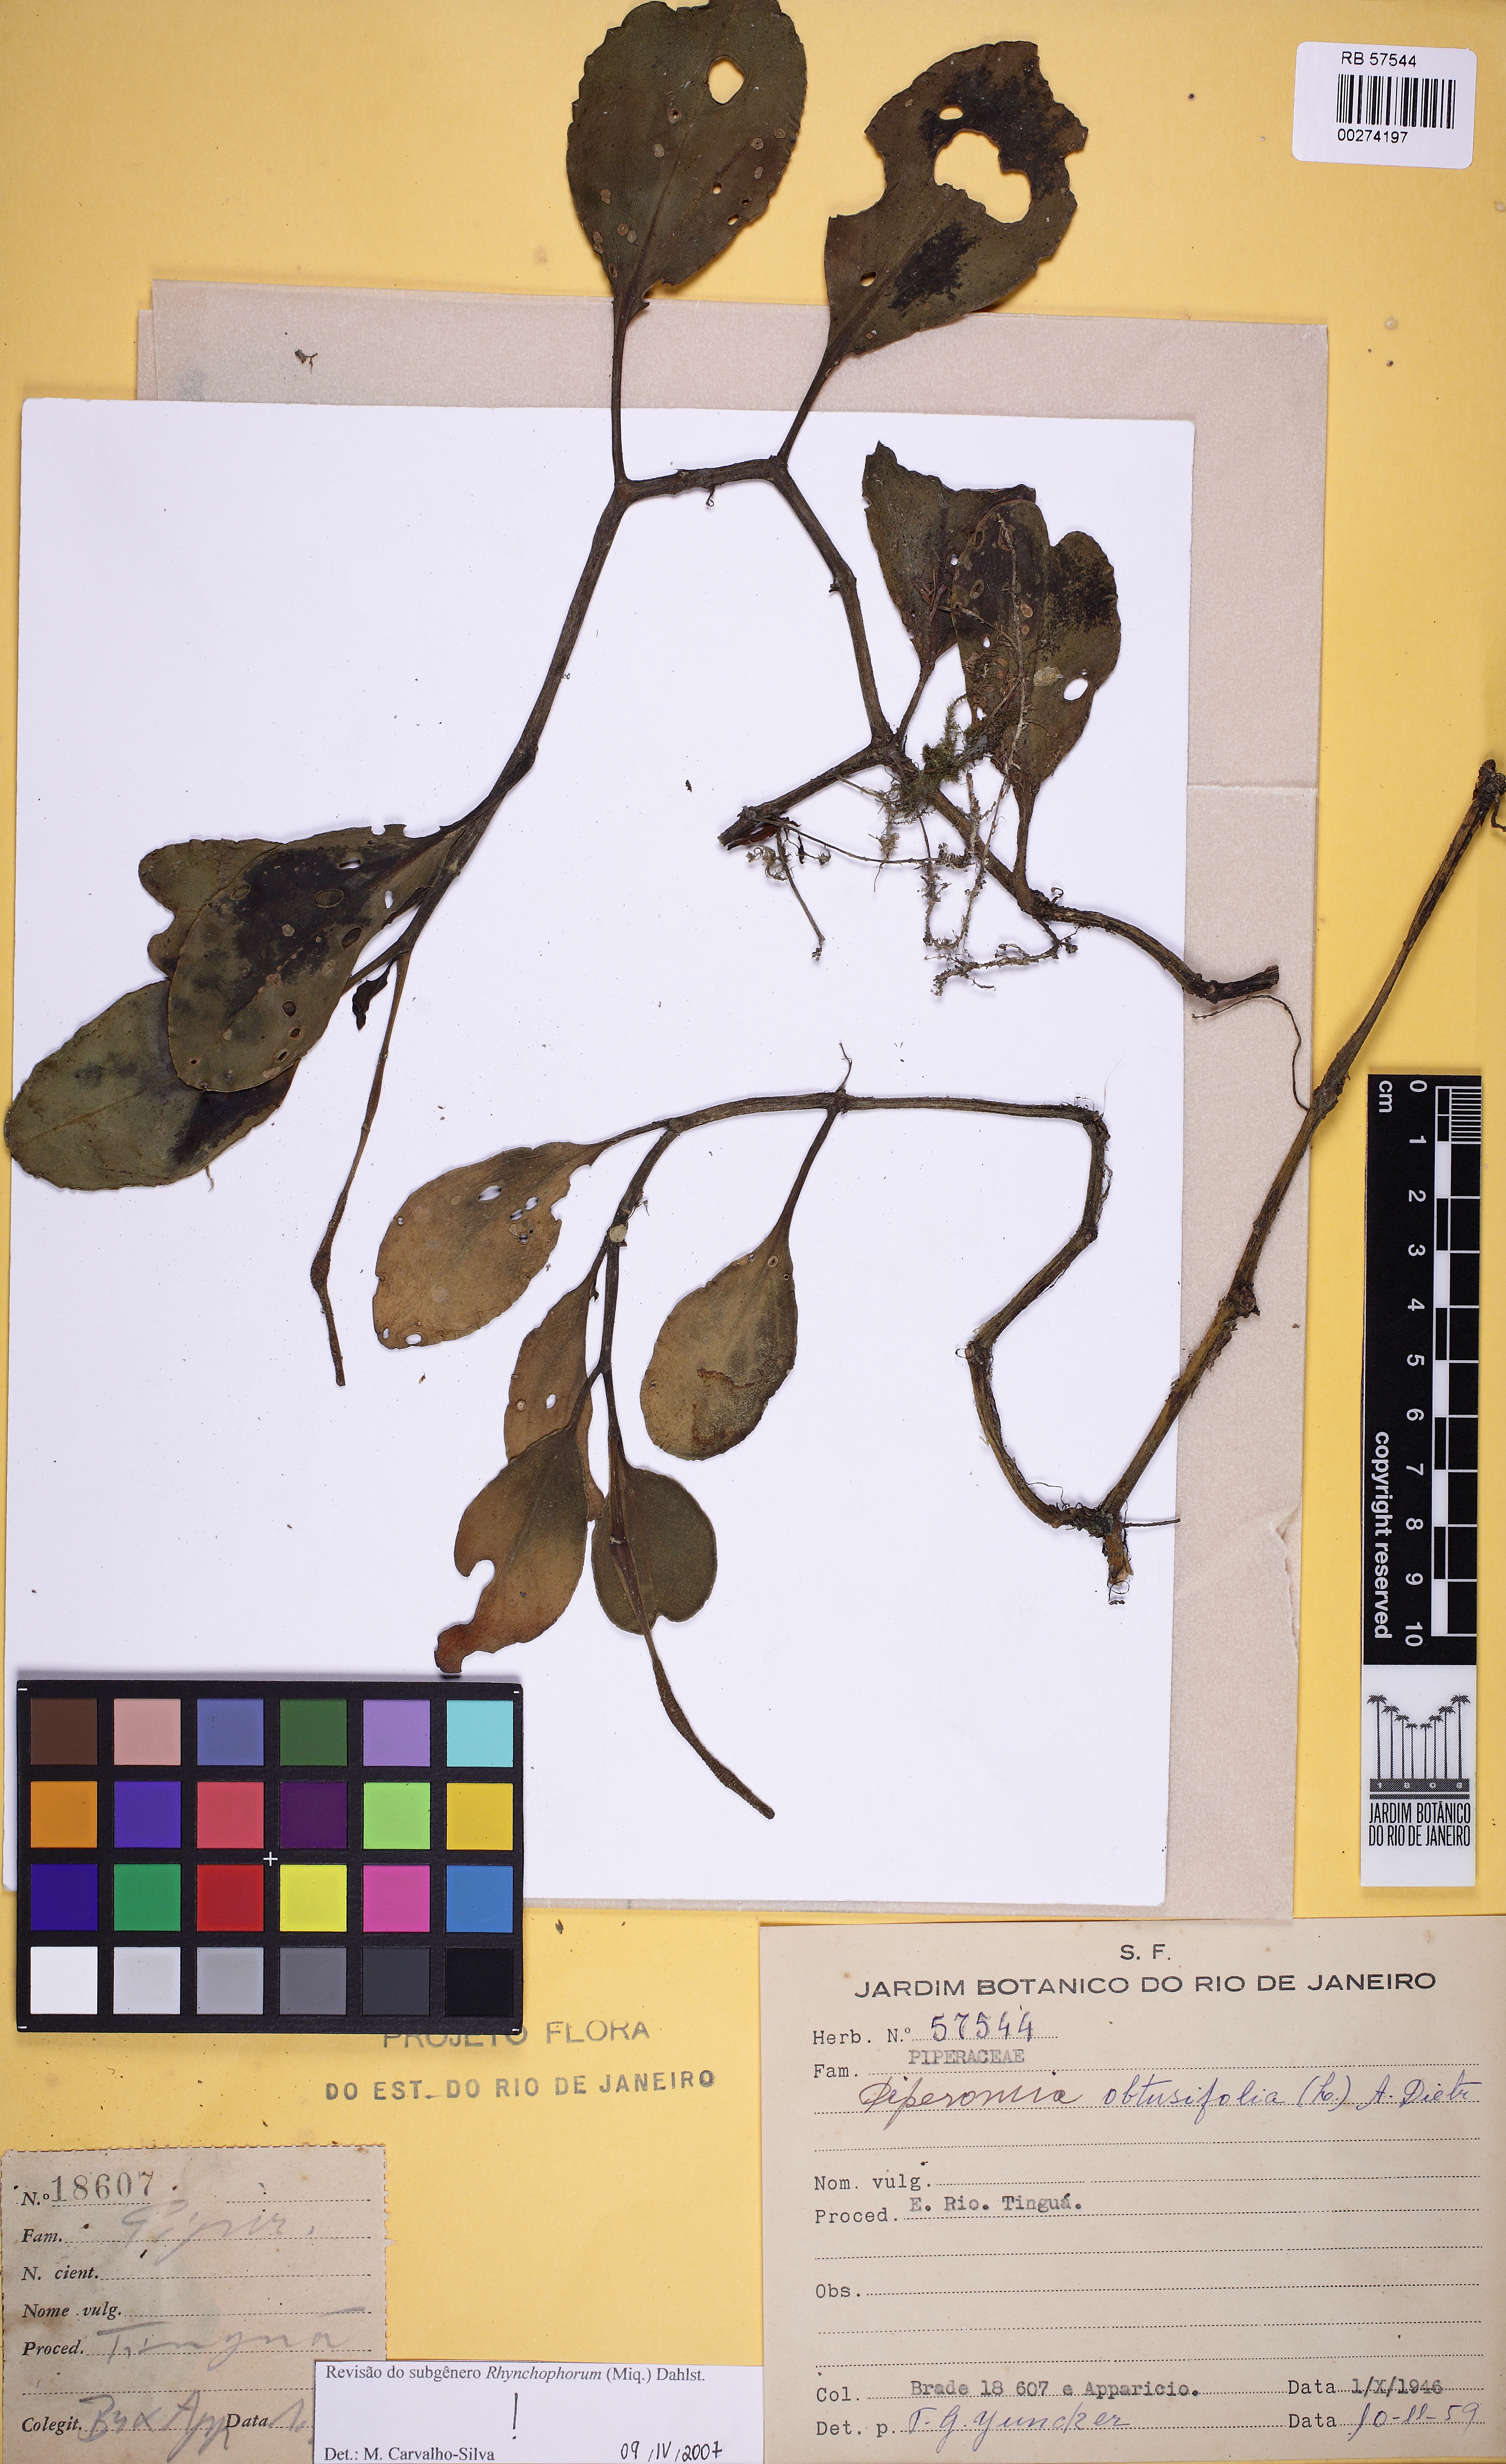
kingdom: Plantae
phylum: Tracheophyta
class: Magnoliopsida
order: Piperales
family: Piperaceae
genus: Peperomia
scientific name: Peperomia obtusifolia
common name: Baby rubberplant
